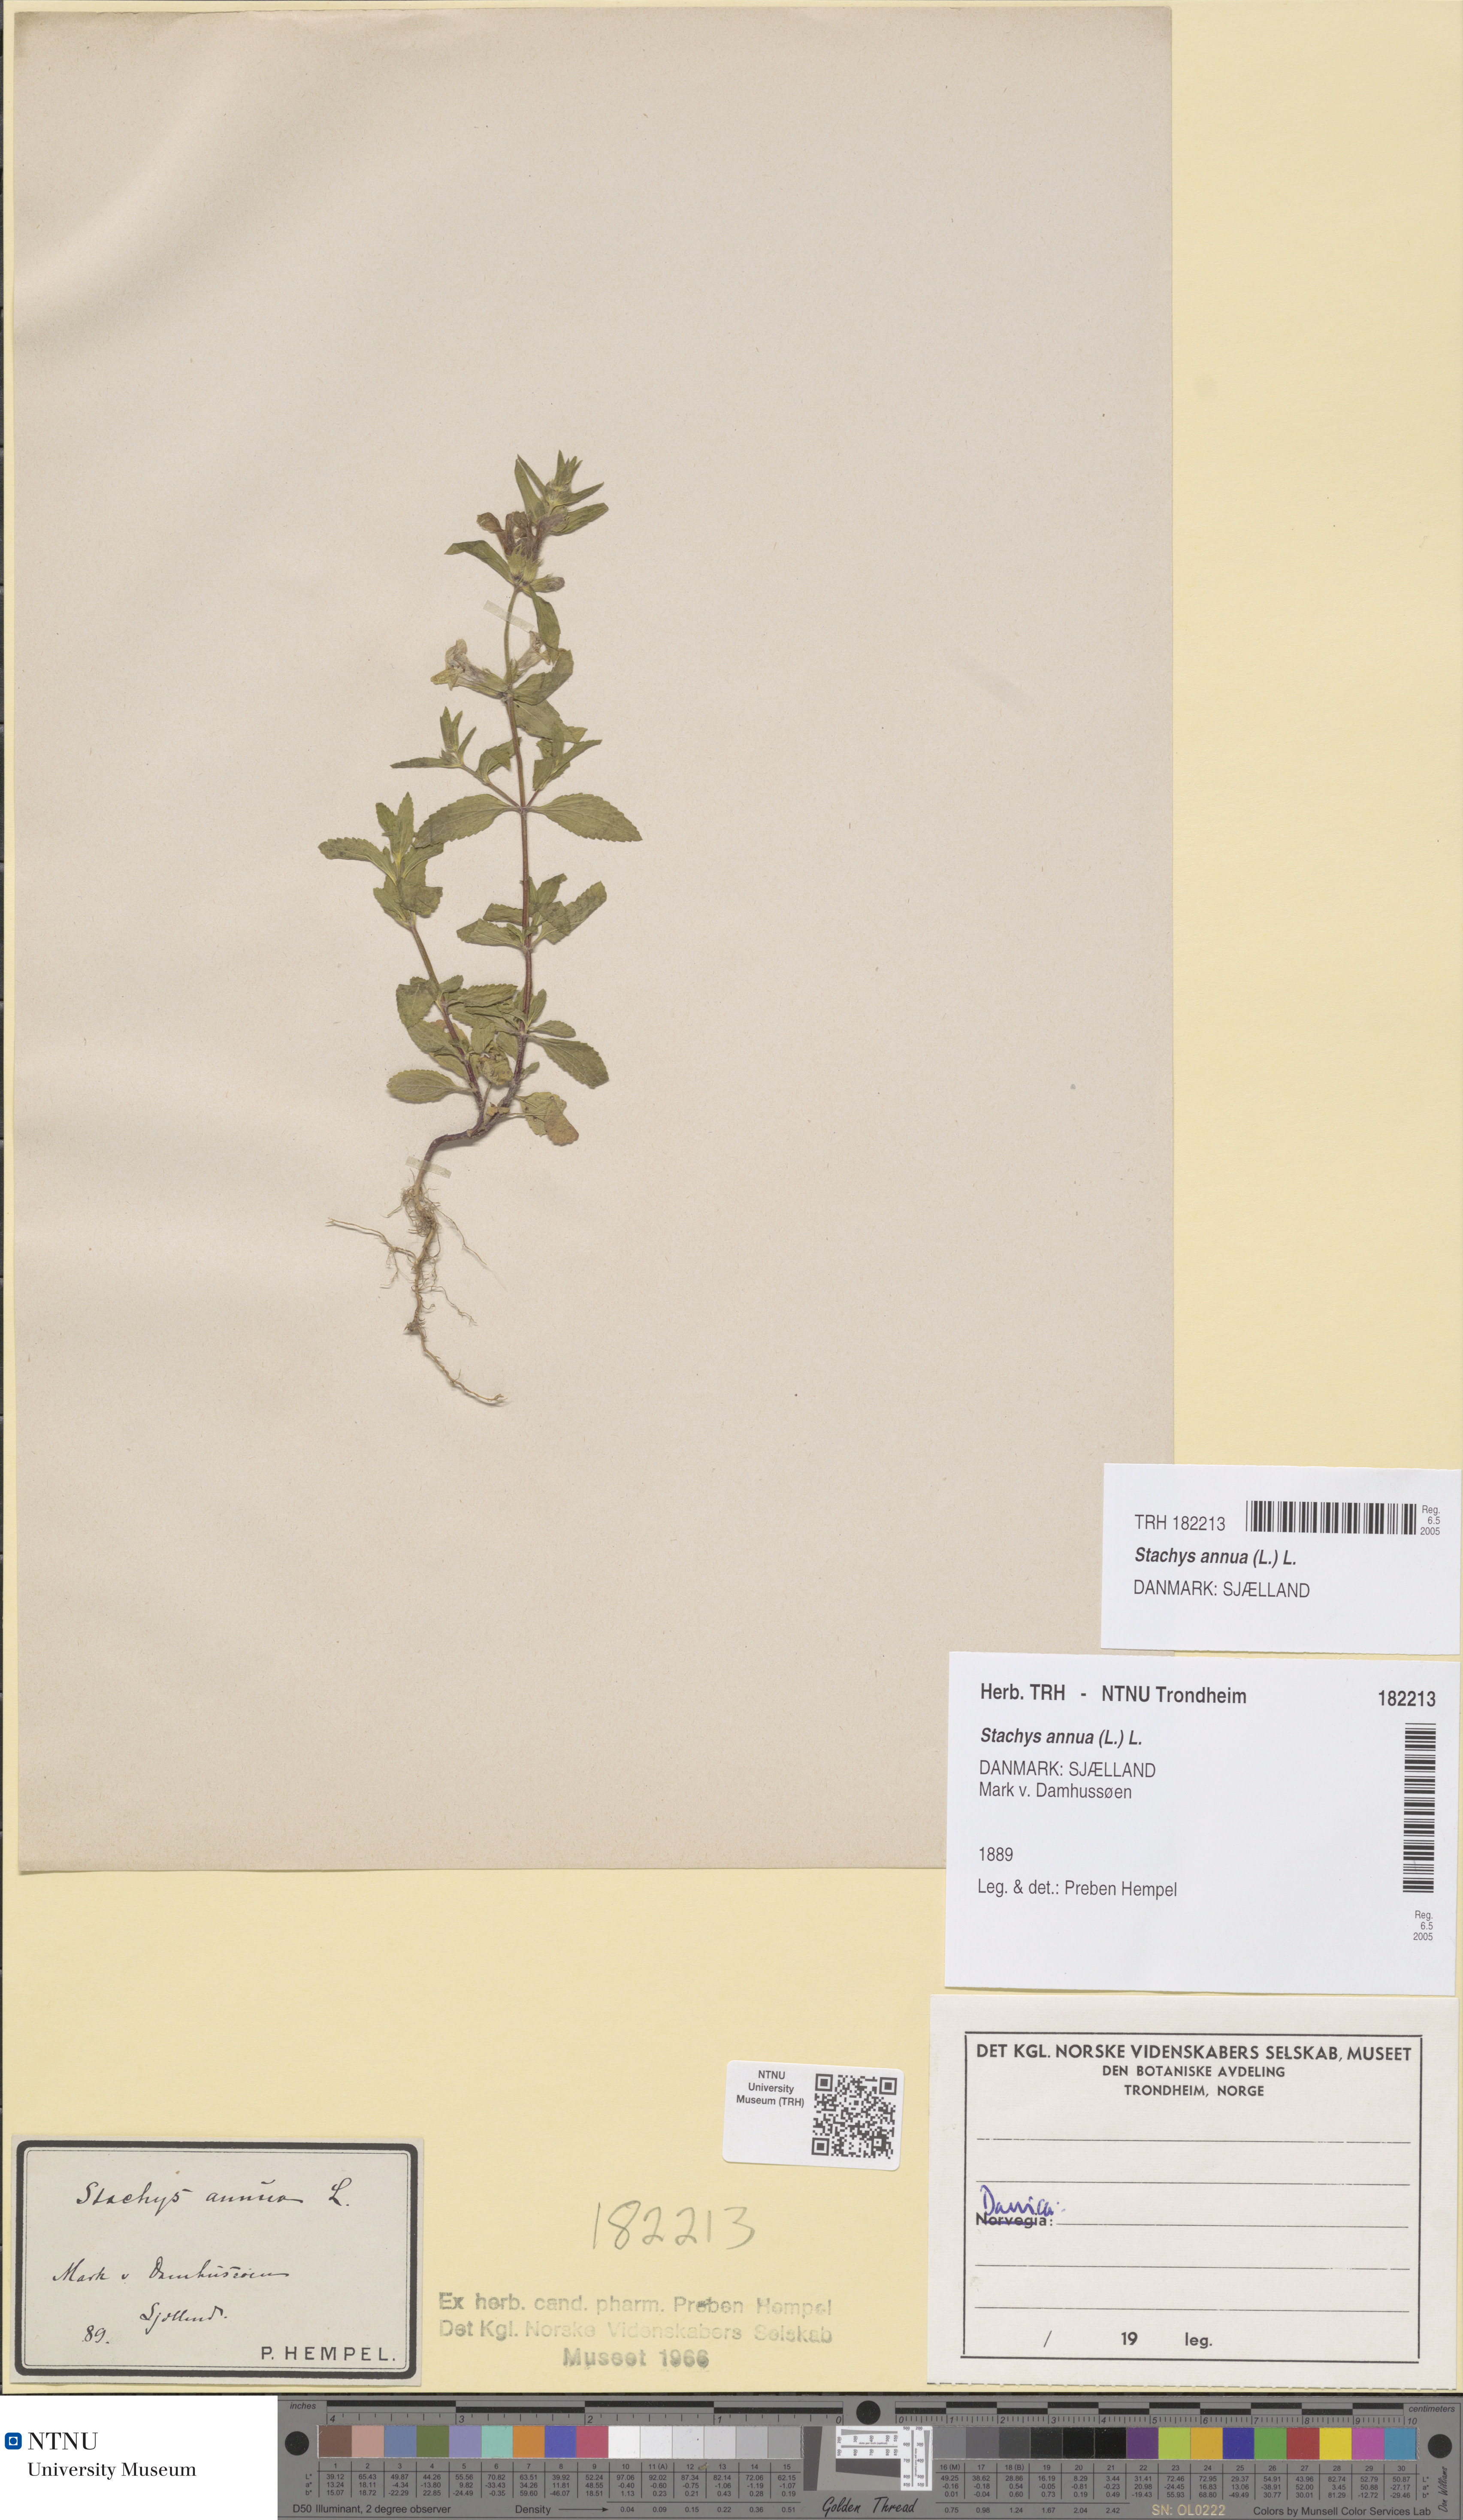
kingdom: Plantae
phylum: Tracheophyta
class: Magnoliopsida
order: Lamiales
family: Lamiaceae
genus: Stachys
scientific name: Stachys annua
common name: Annual yellow-woundwort
